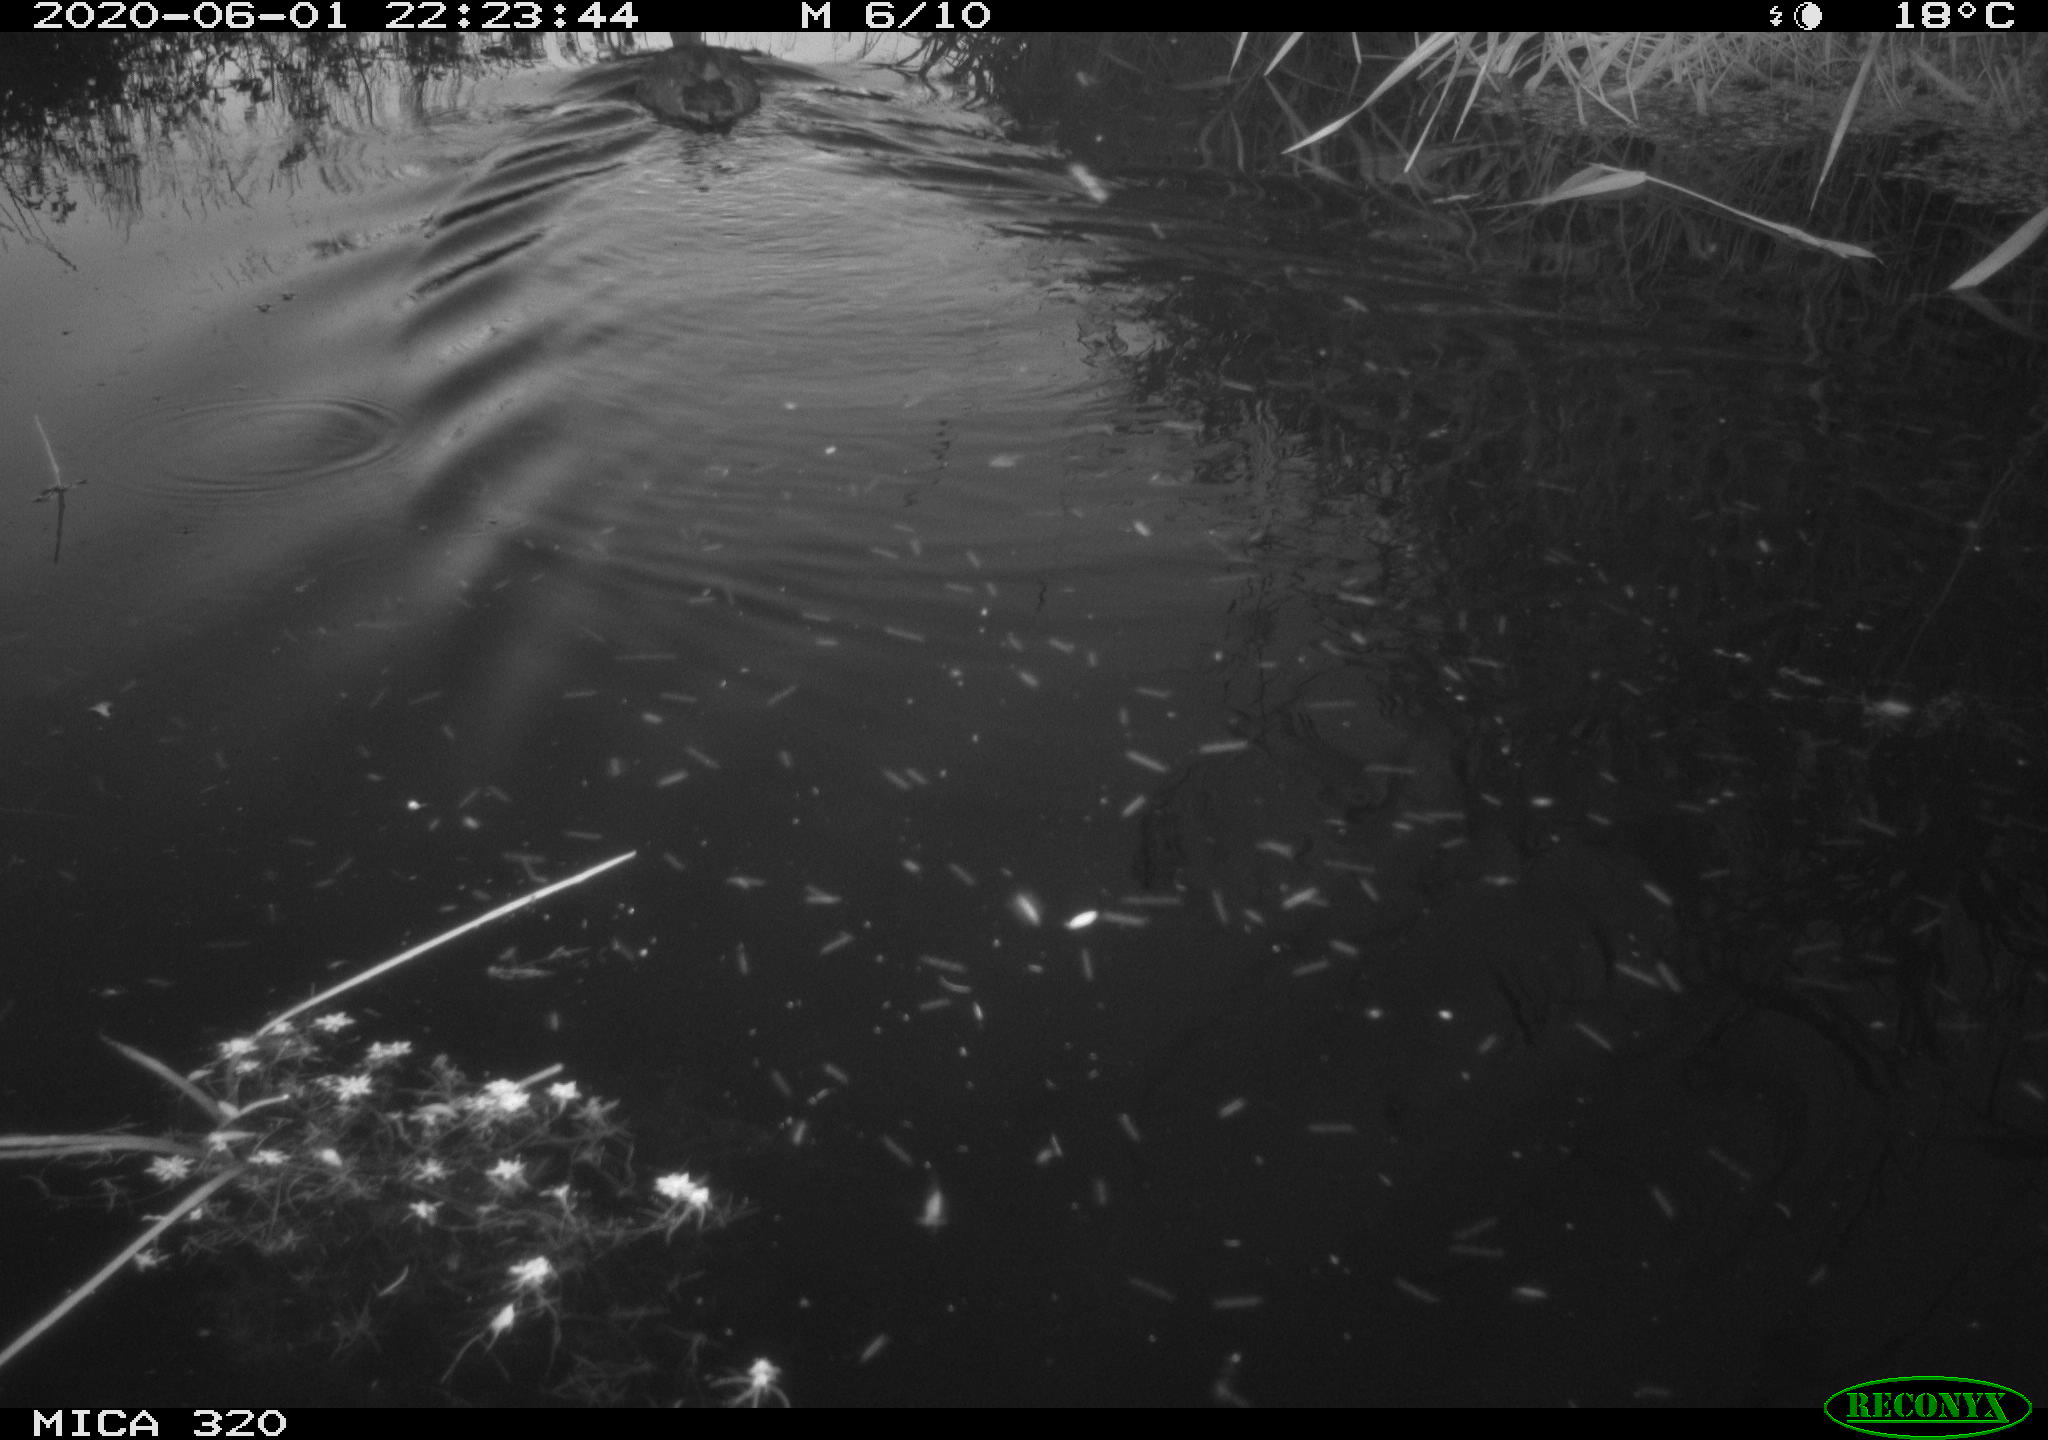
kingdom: Animalia
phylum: Chordata
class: Aves
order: Anseriformes
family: Anatidae
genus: Anas
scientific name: Anas platyrhynchos
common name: Mallard
